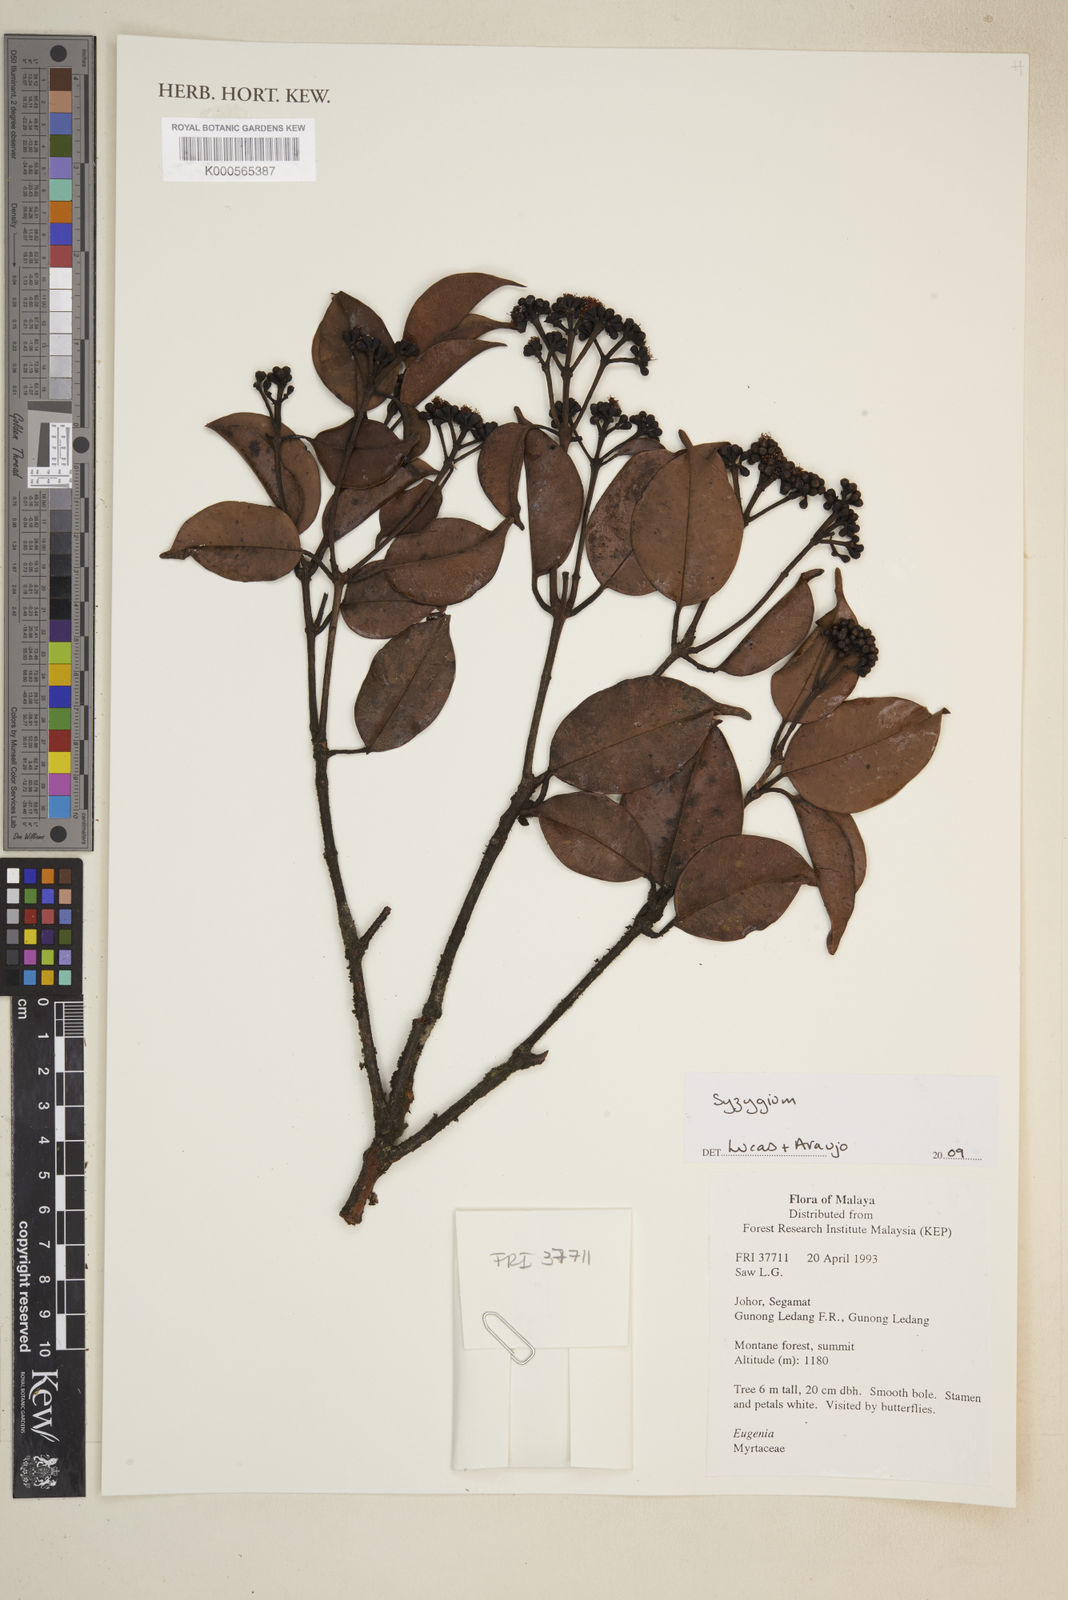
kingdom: Plantae
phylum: Tracheophyta
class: Magnoliopsida
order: Myrtales
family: Myrtaceae
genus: Syzygium
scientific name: Syzygium
